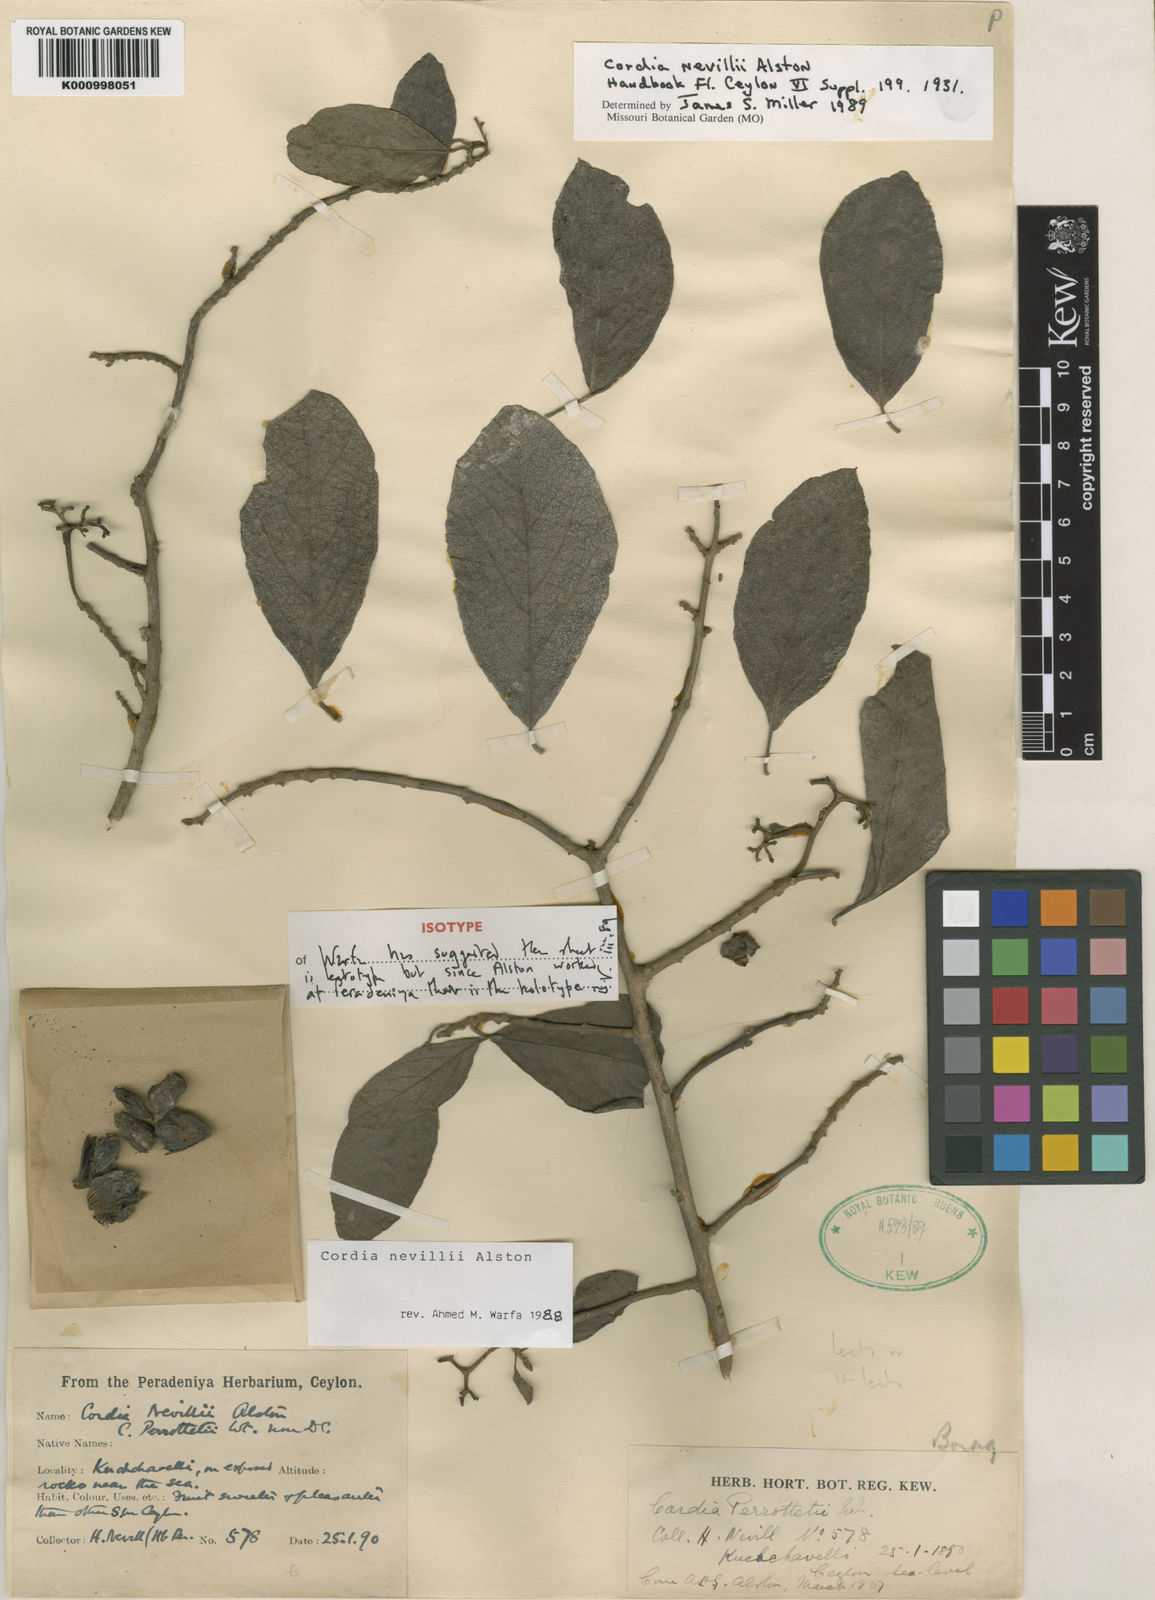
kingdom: Plantae
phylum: Tracheophyta
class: Magnoliopsida
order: Boraginales
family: Cordiaceae
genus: Cordia
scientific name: Cordia quercifolia
